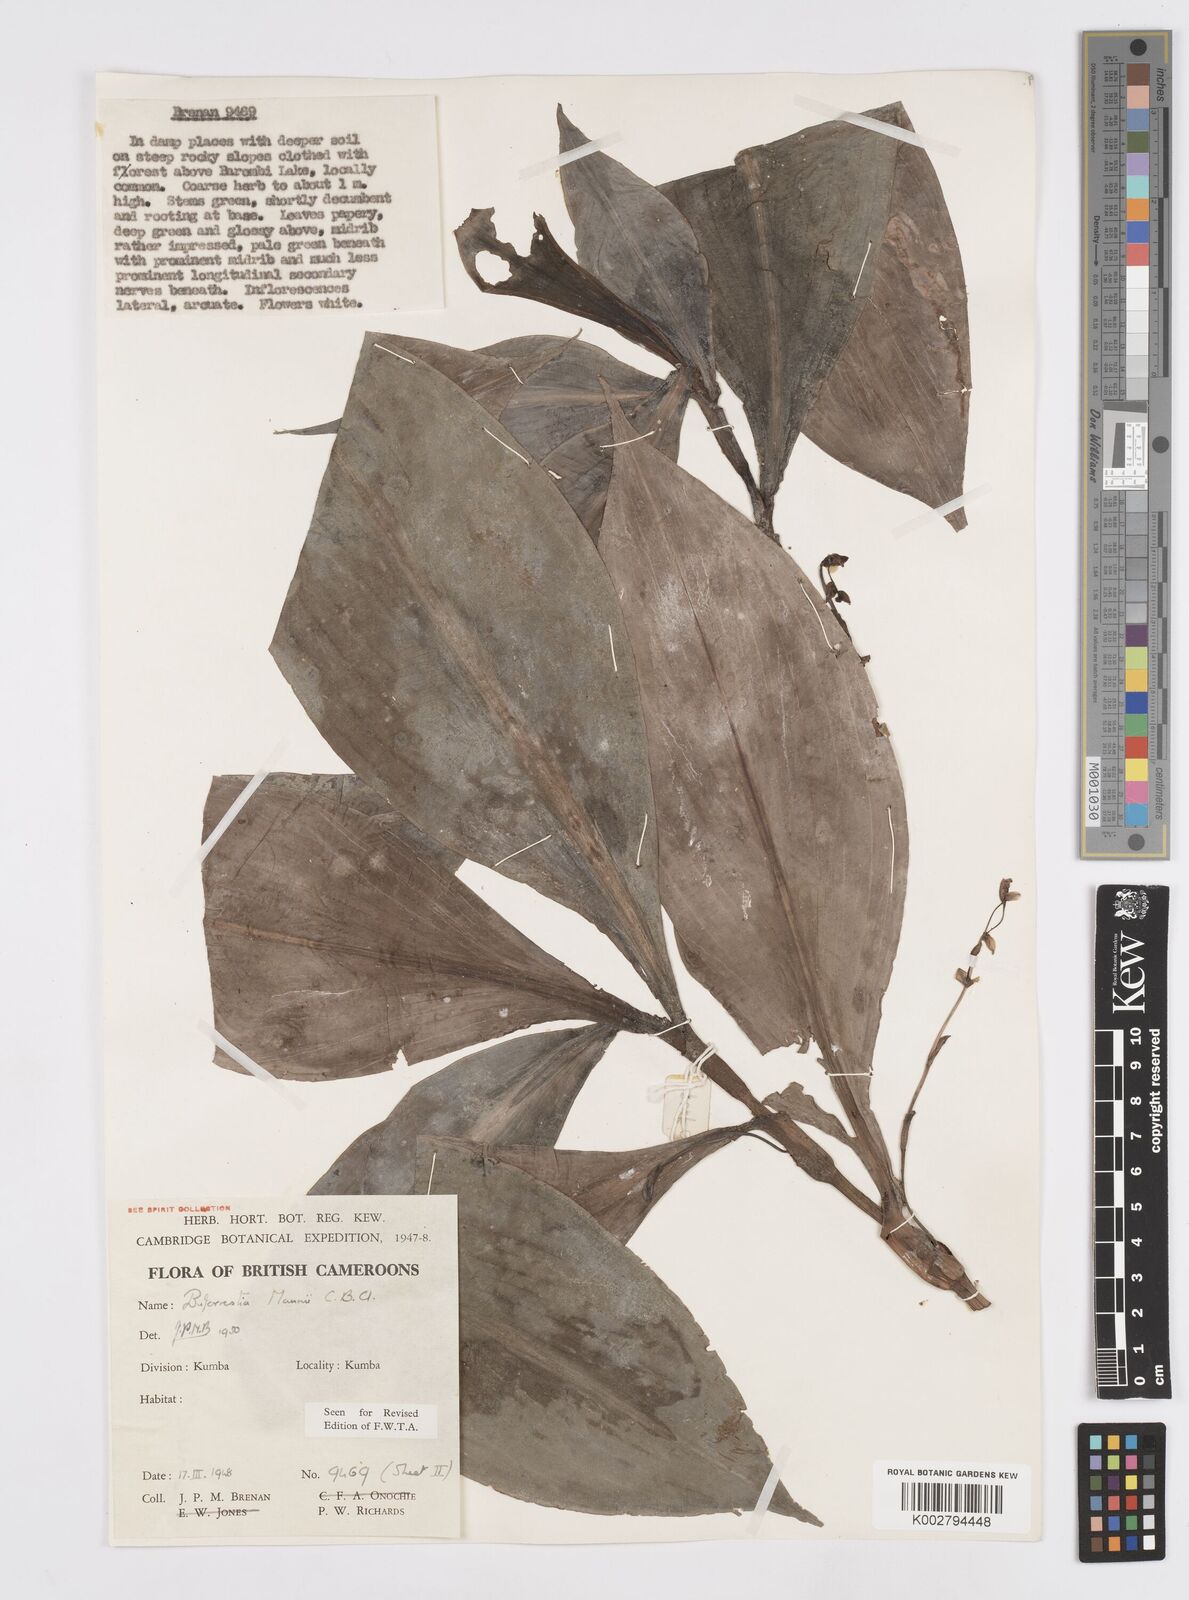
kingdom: Plantae
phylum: Tracheophyta
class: Liliopsida
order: Commelinales
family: Commelinaceae
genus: Buforrestia
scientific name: Buforrestia mannii
